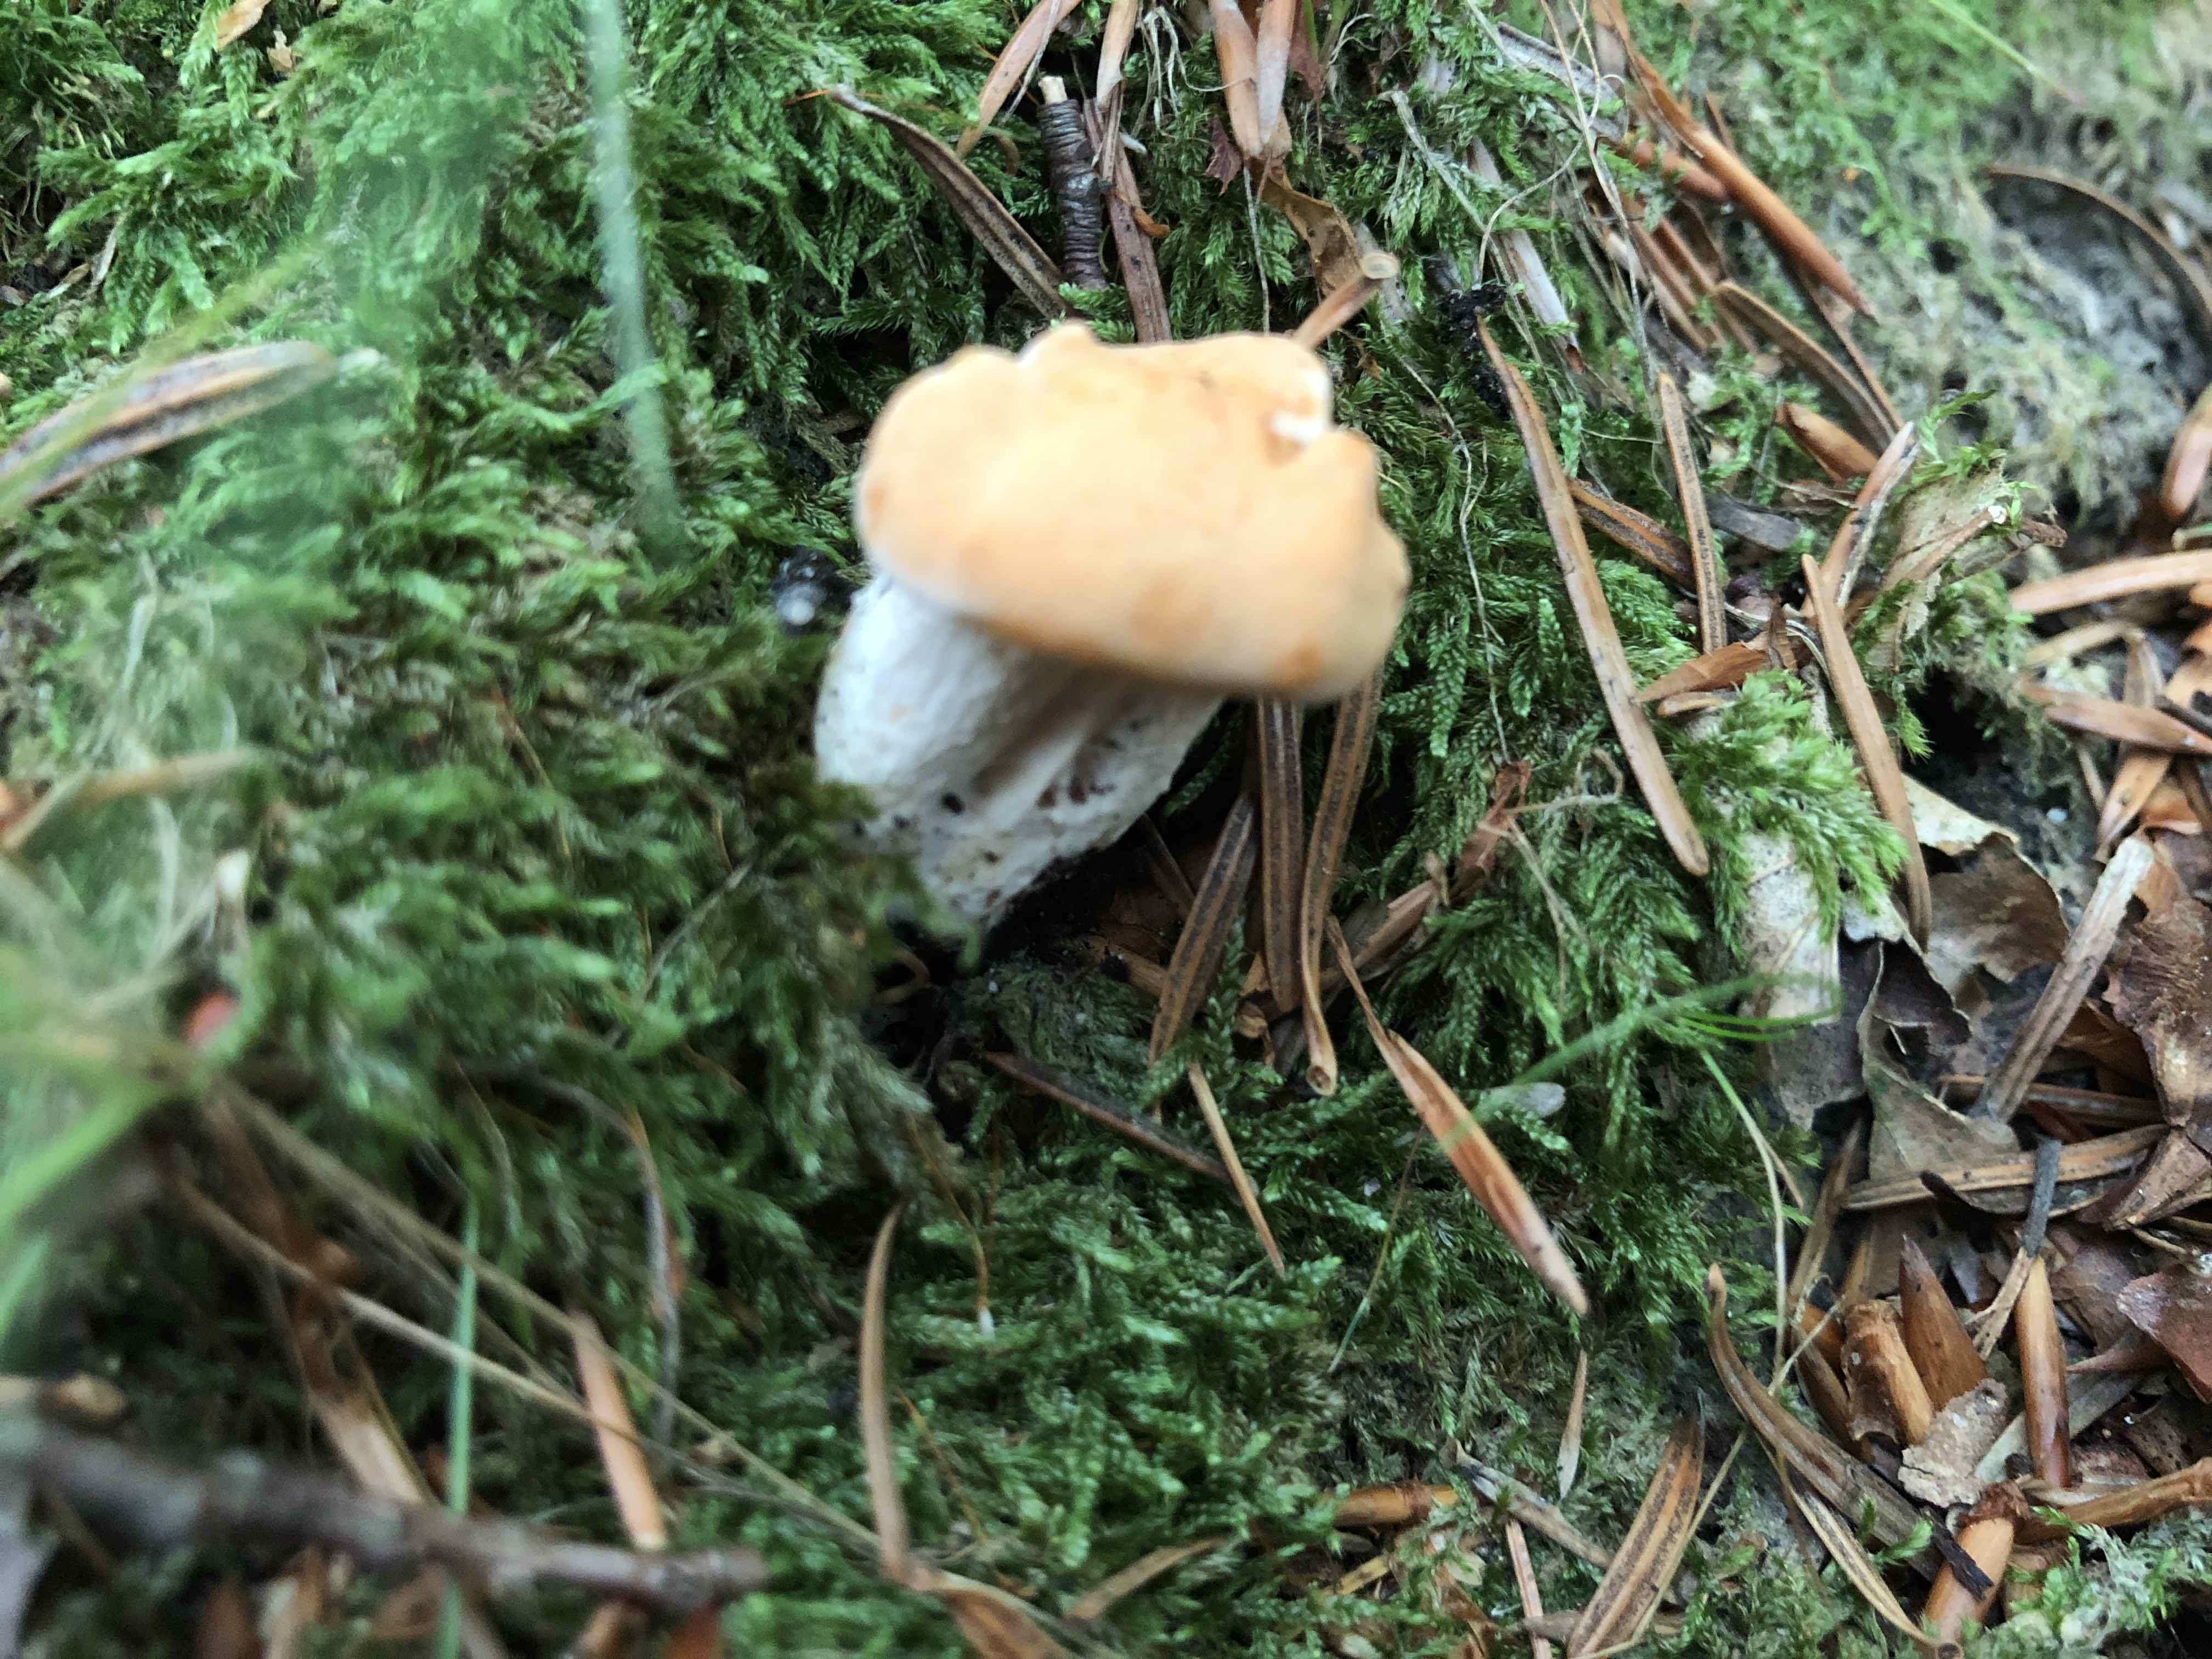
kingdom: Fungi
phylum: Basidiomycota
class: Agaricomycetes
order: Cantharellales
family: Hydnaceae
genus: Hydnum
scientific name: Hydnum
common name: pigsvamp
